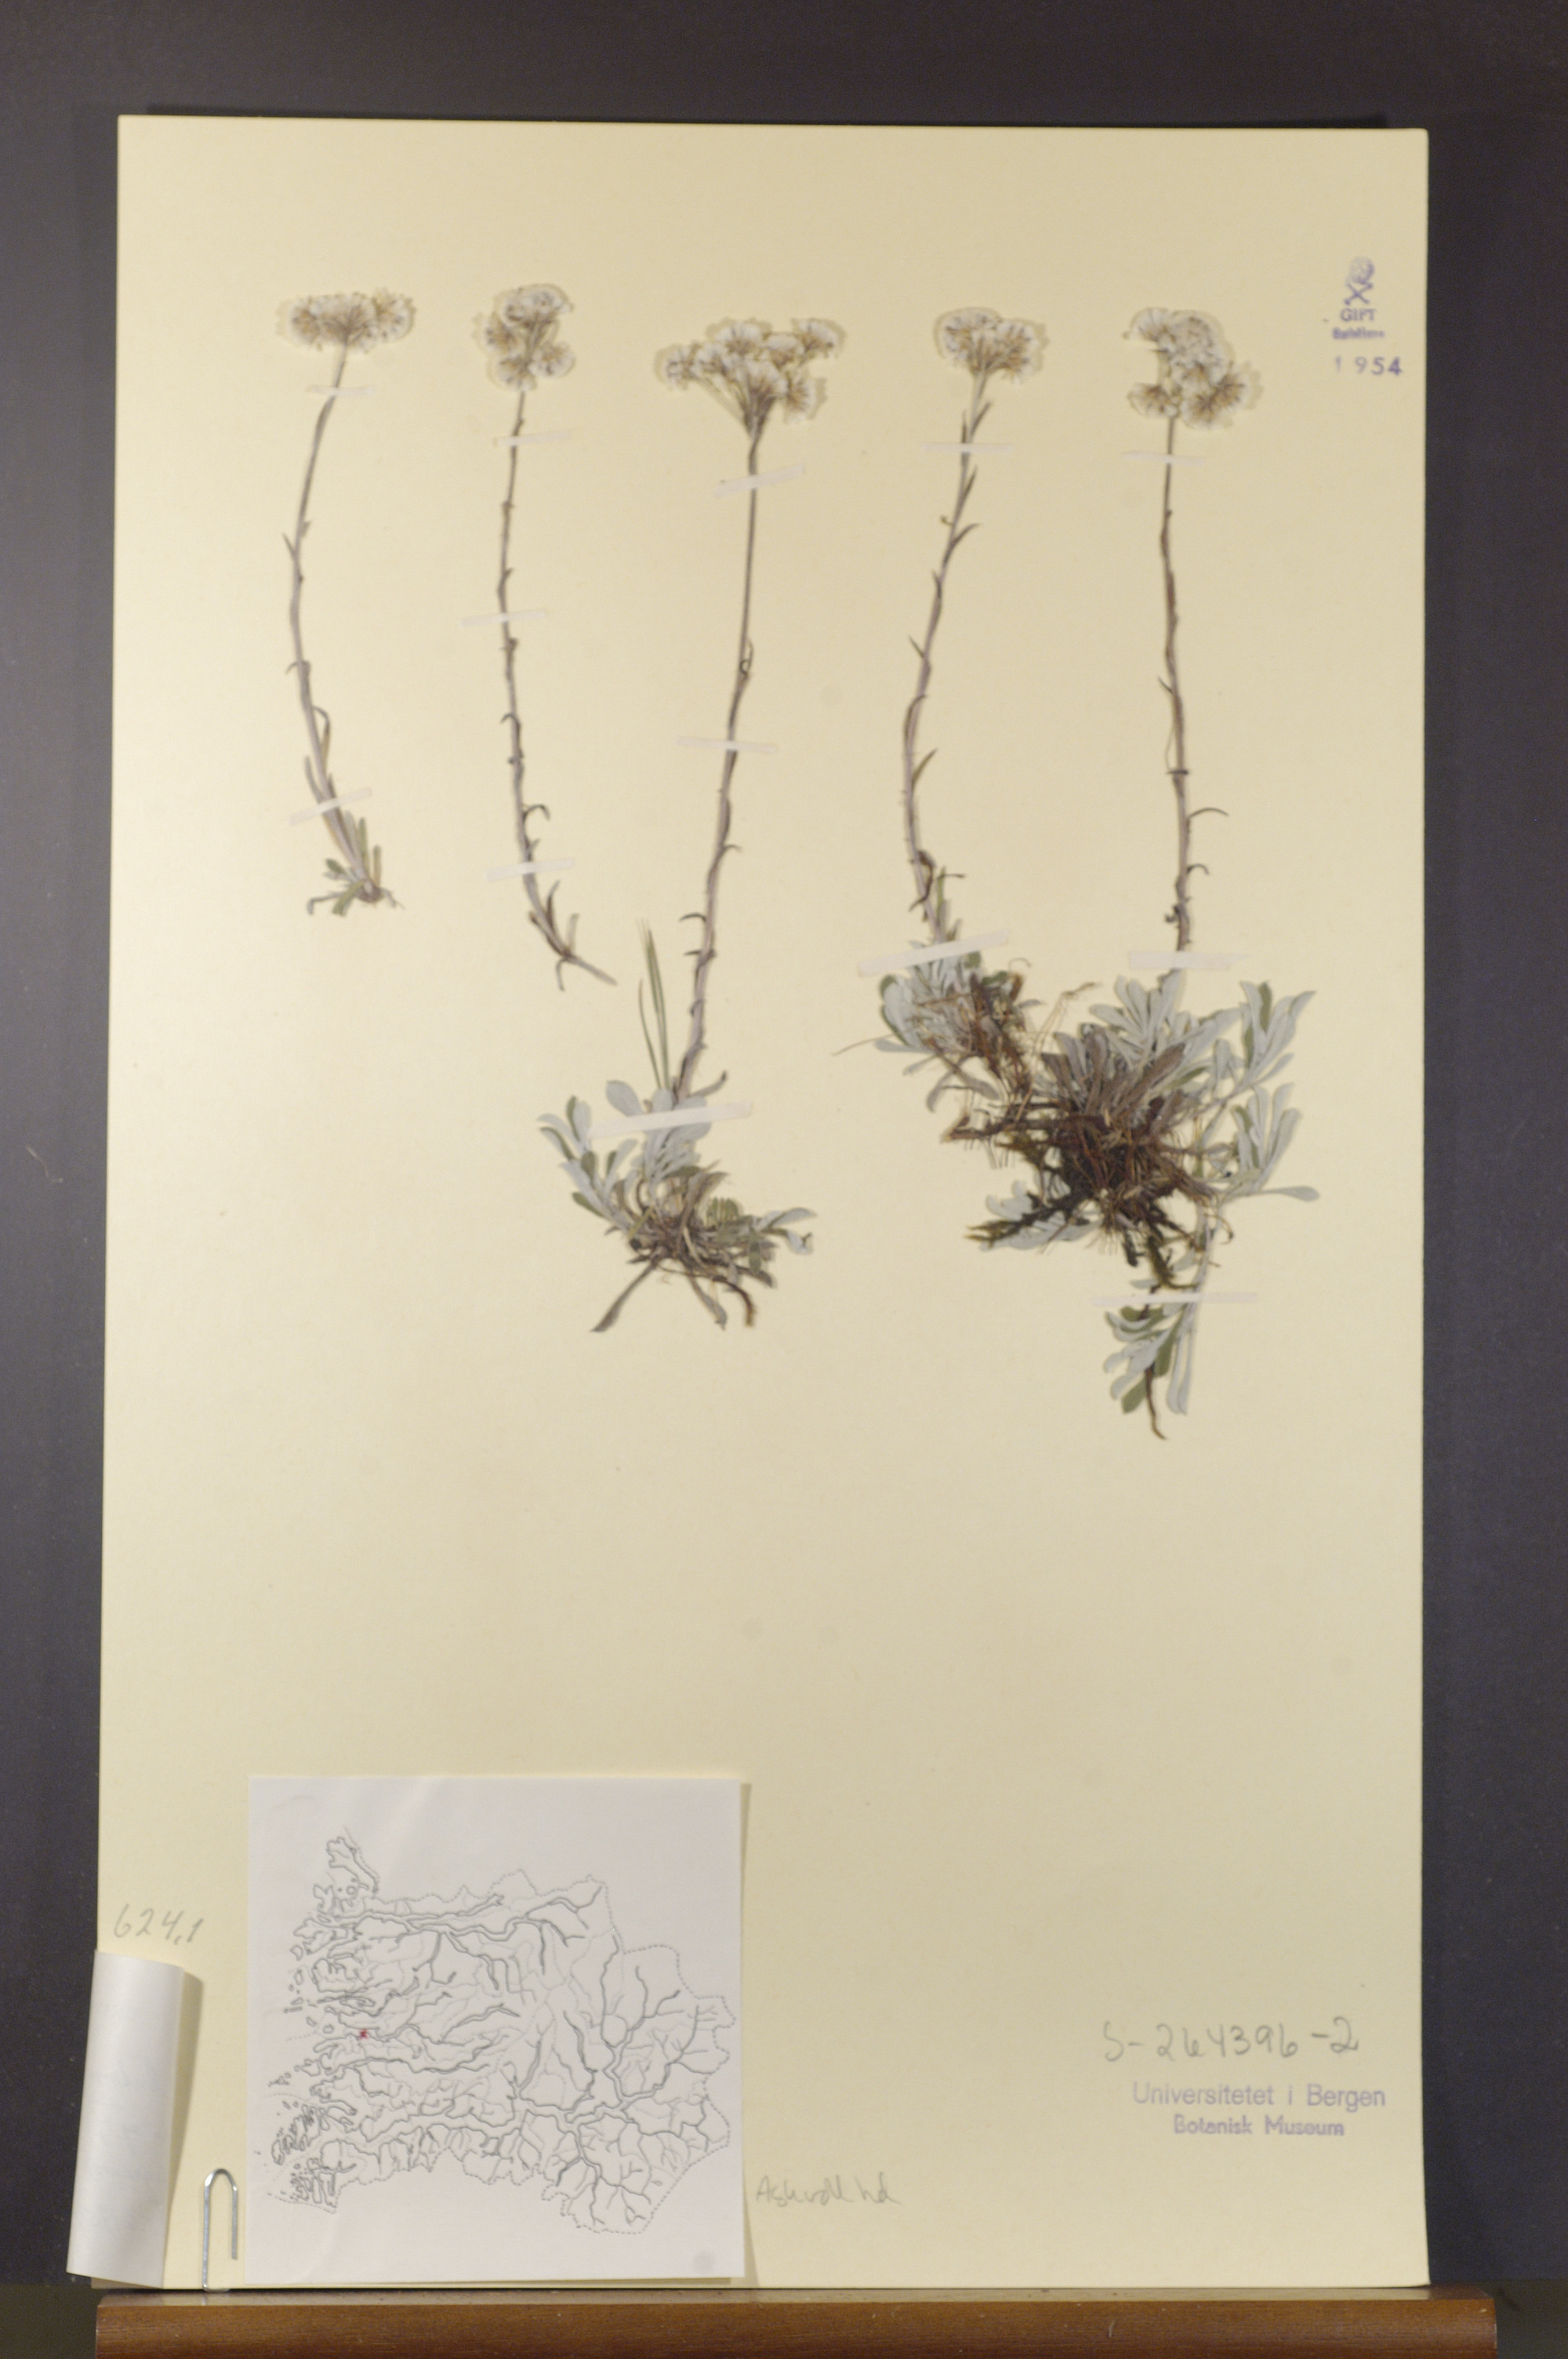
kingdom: Plantae
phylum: Tracheophyta
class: Magnoliopsida
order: Asterales
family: Asteraceae
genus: Antennaria
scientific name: Antennaria dioica
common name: Mountain everlasting
